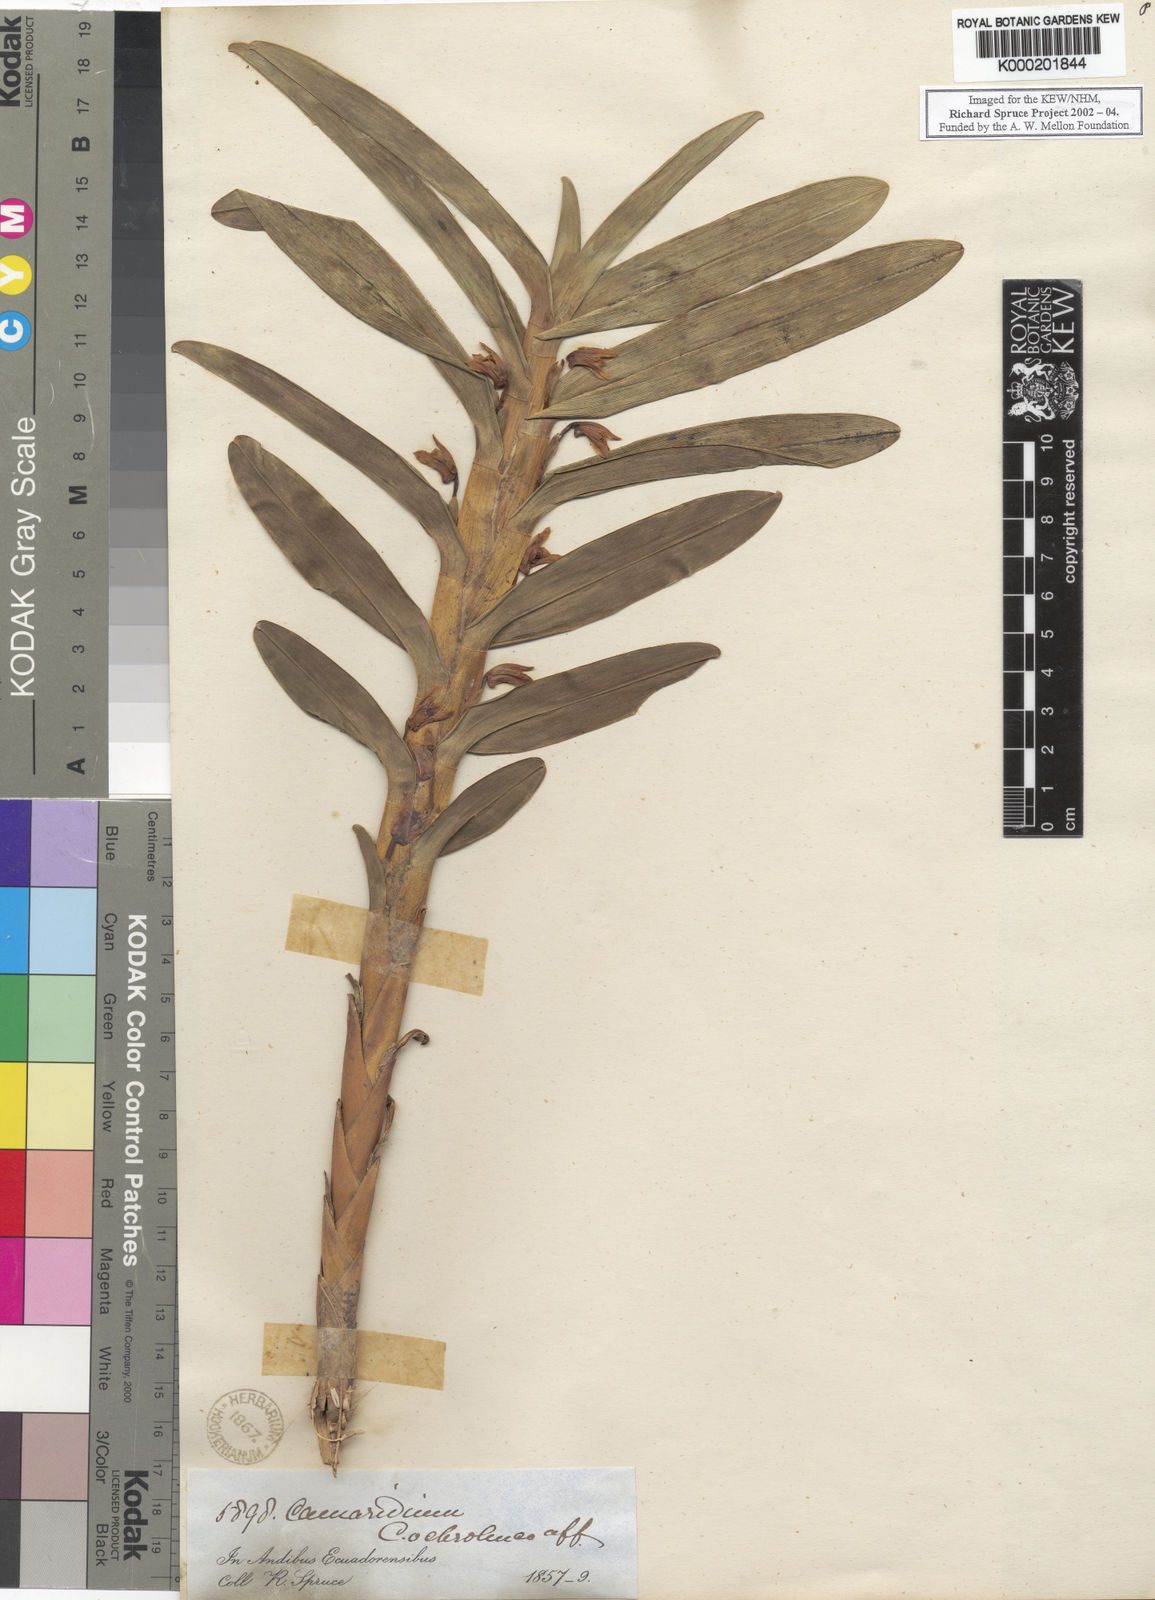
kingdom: Plantae
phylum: Tracheophyta
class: Liliopsida
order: Asparagales
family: Orchidaceae
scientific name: Orchidaceae
